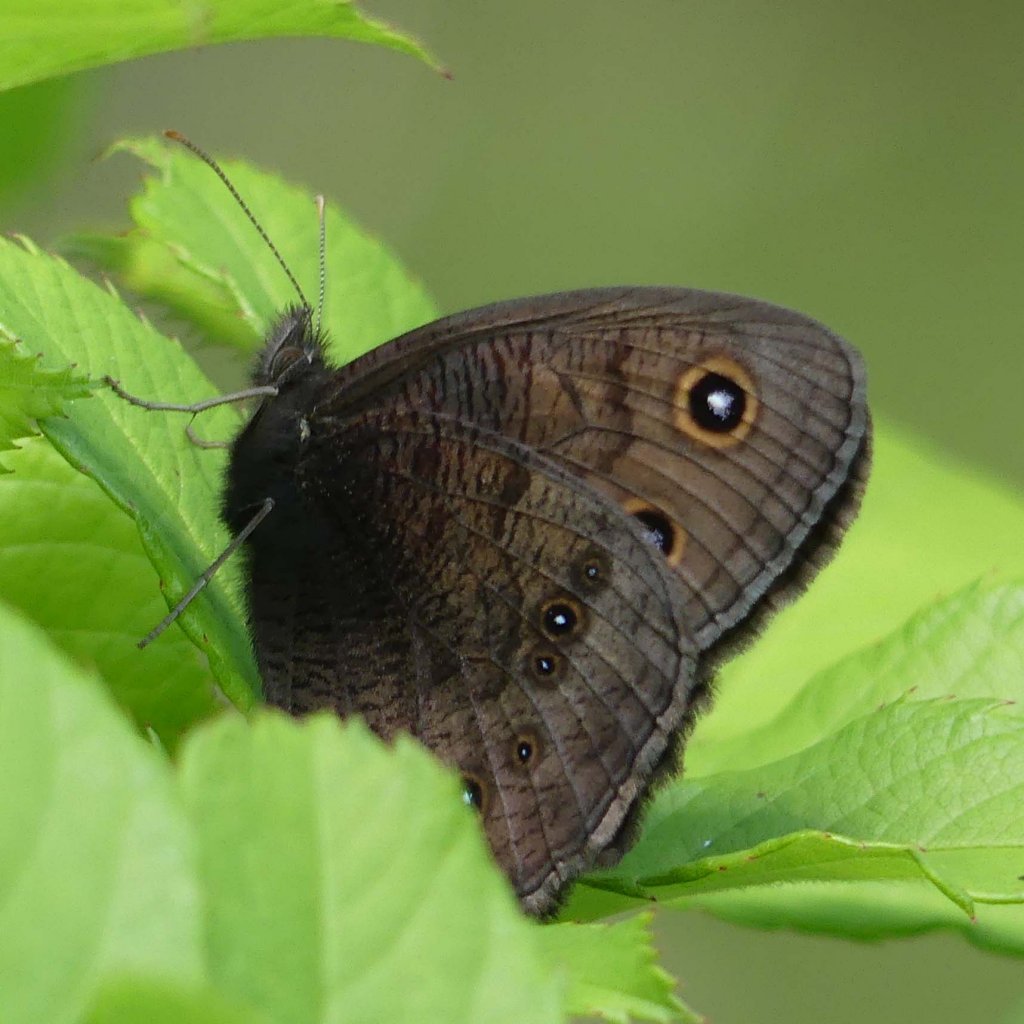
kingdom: Animalia
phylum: Arthropoda
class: Insecta
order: Lepidoptera
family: Nymphalidae
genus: Cercyonis
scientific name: Cercyonis pegala
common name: Common Wood-Nymph
